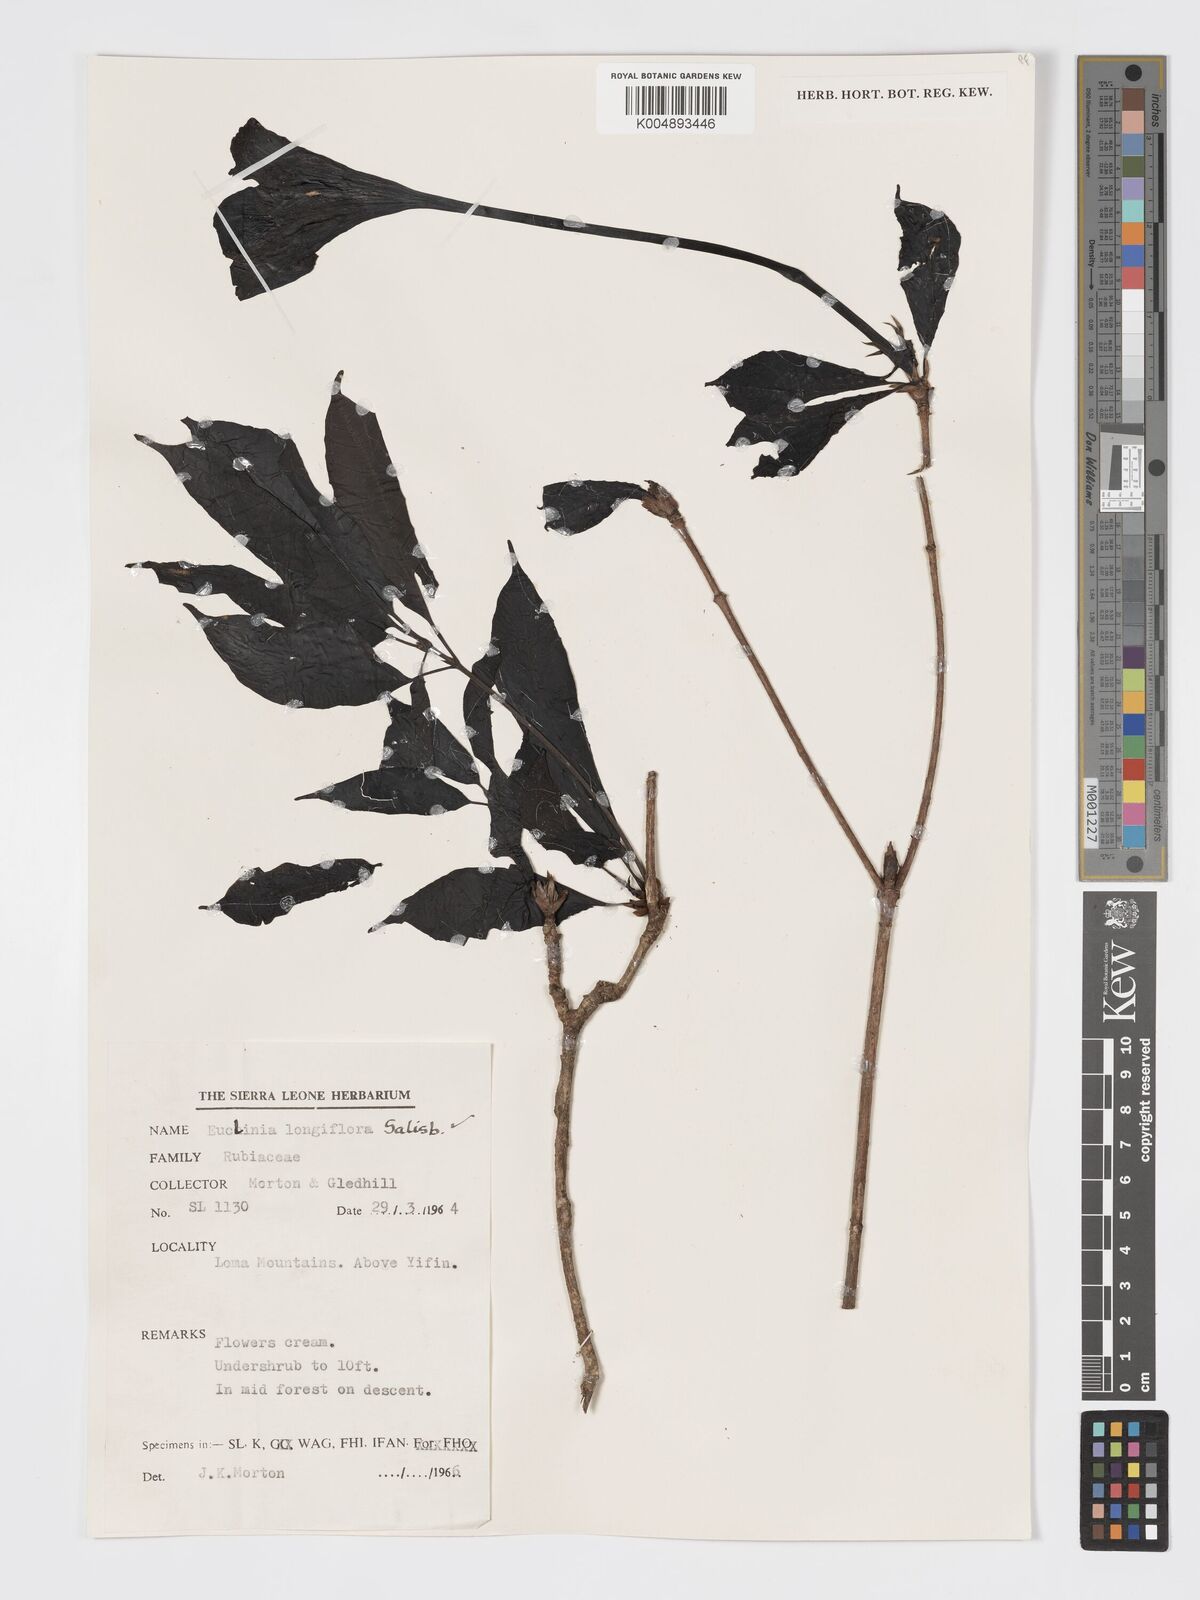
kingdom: Plantae
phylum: Tracheophyta
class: Magnoliopsida
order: Gentianales
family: Rubiaceae
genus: Euclinia
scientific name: Euclinia longiflora
